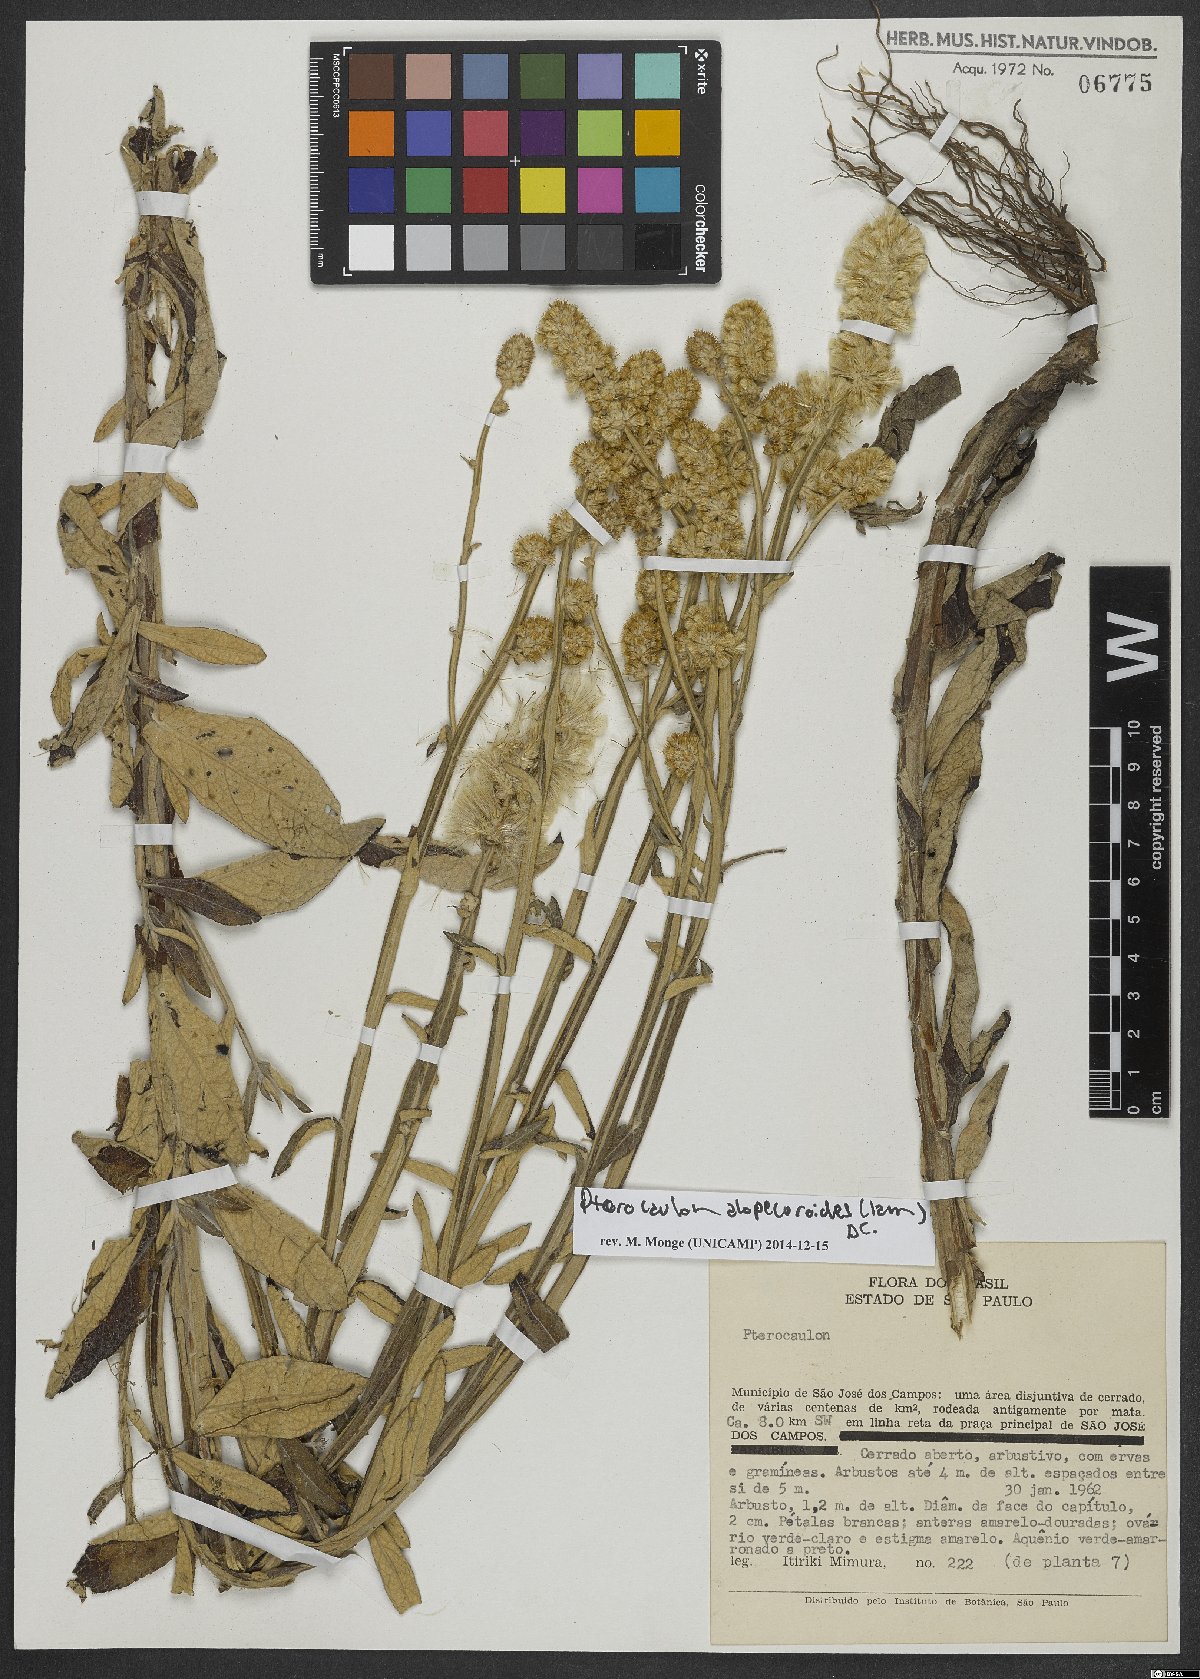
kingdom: Plantae
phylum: Tracheophyta
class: Magnoliopsida
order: Asterales
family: Asteraceae
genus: Pterocaulon
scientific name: Pterocaulon alopecuroides
